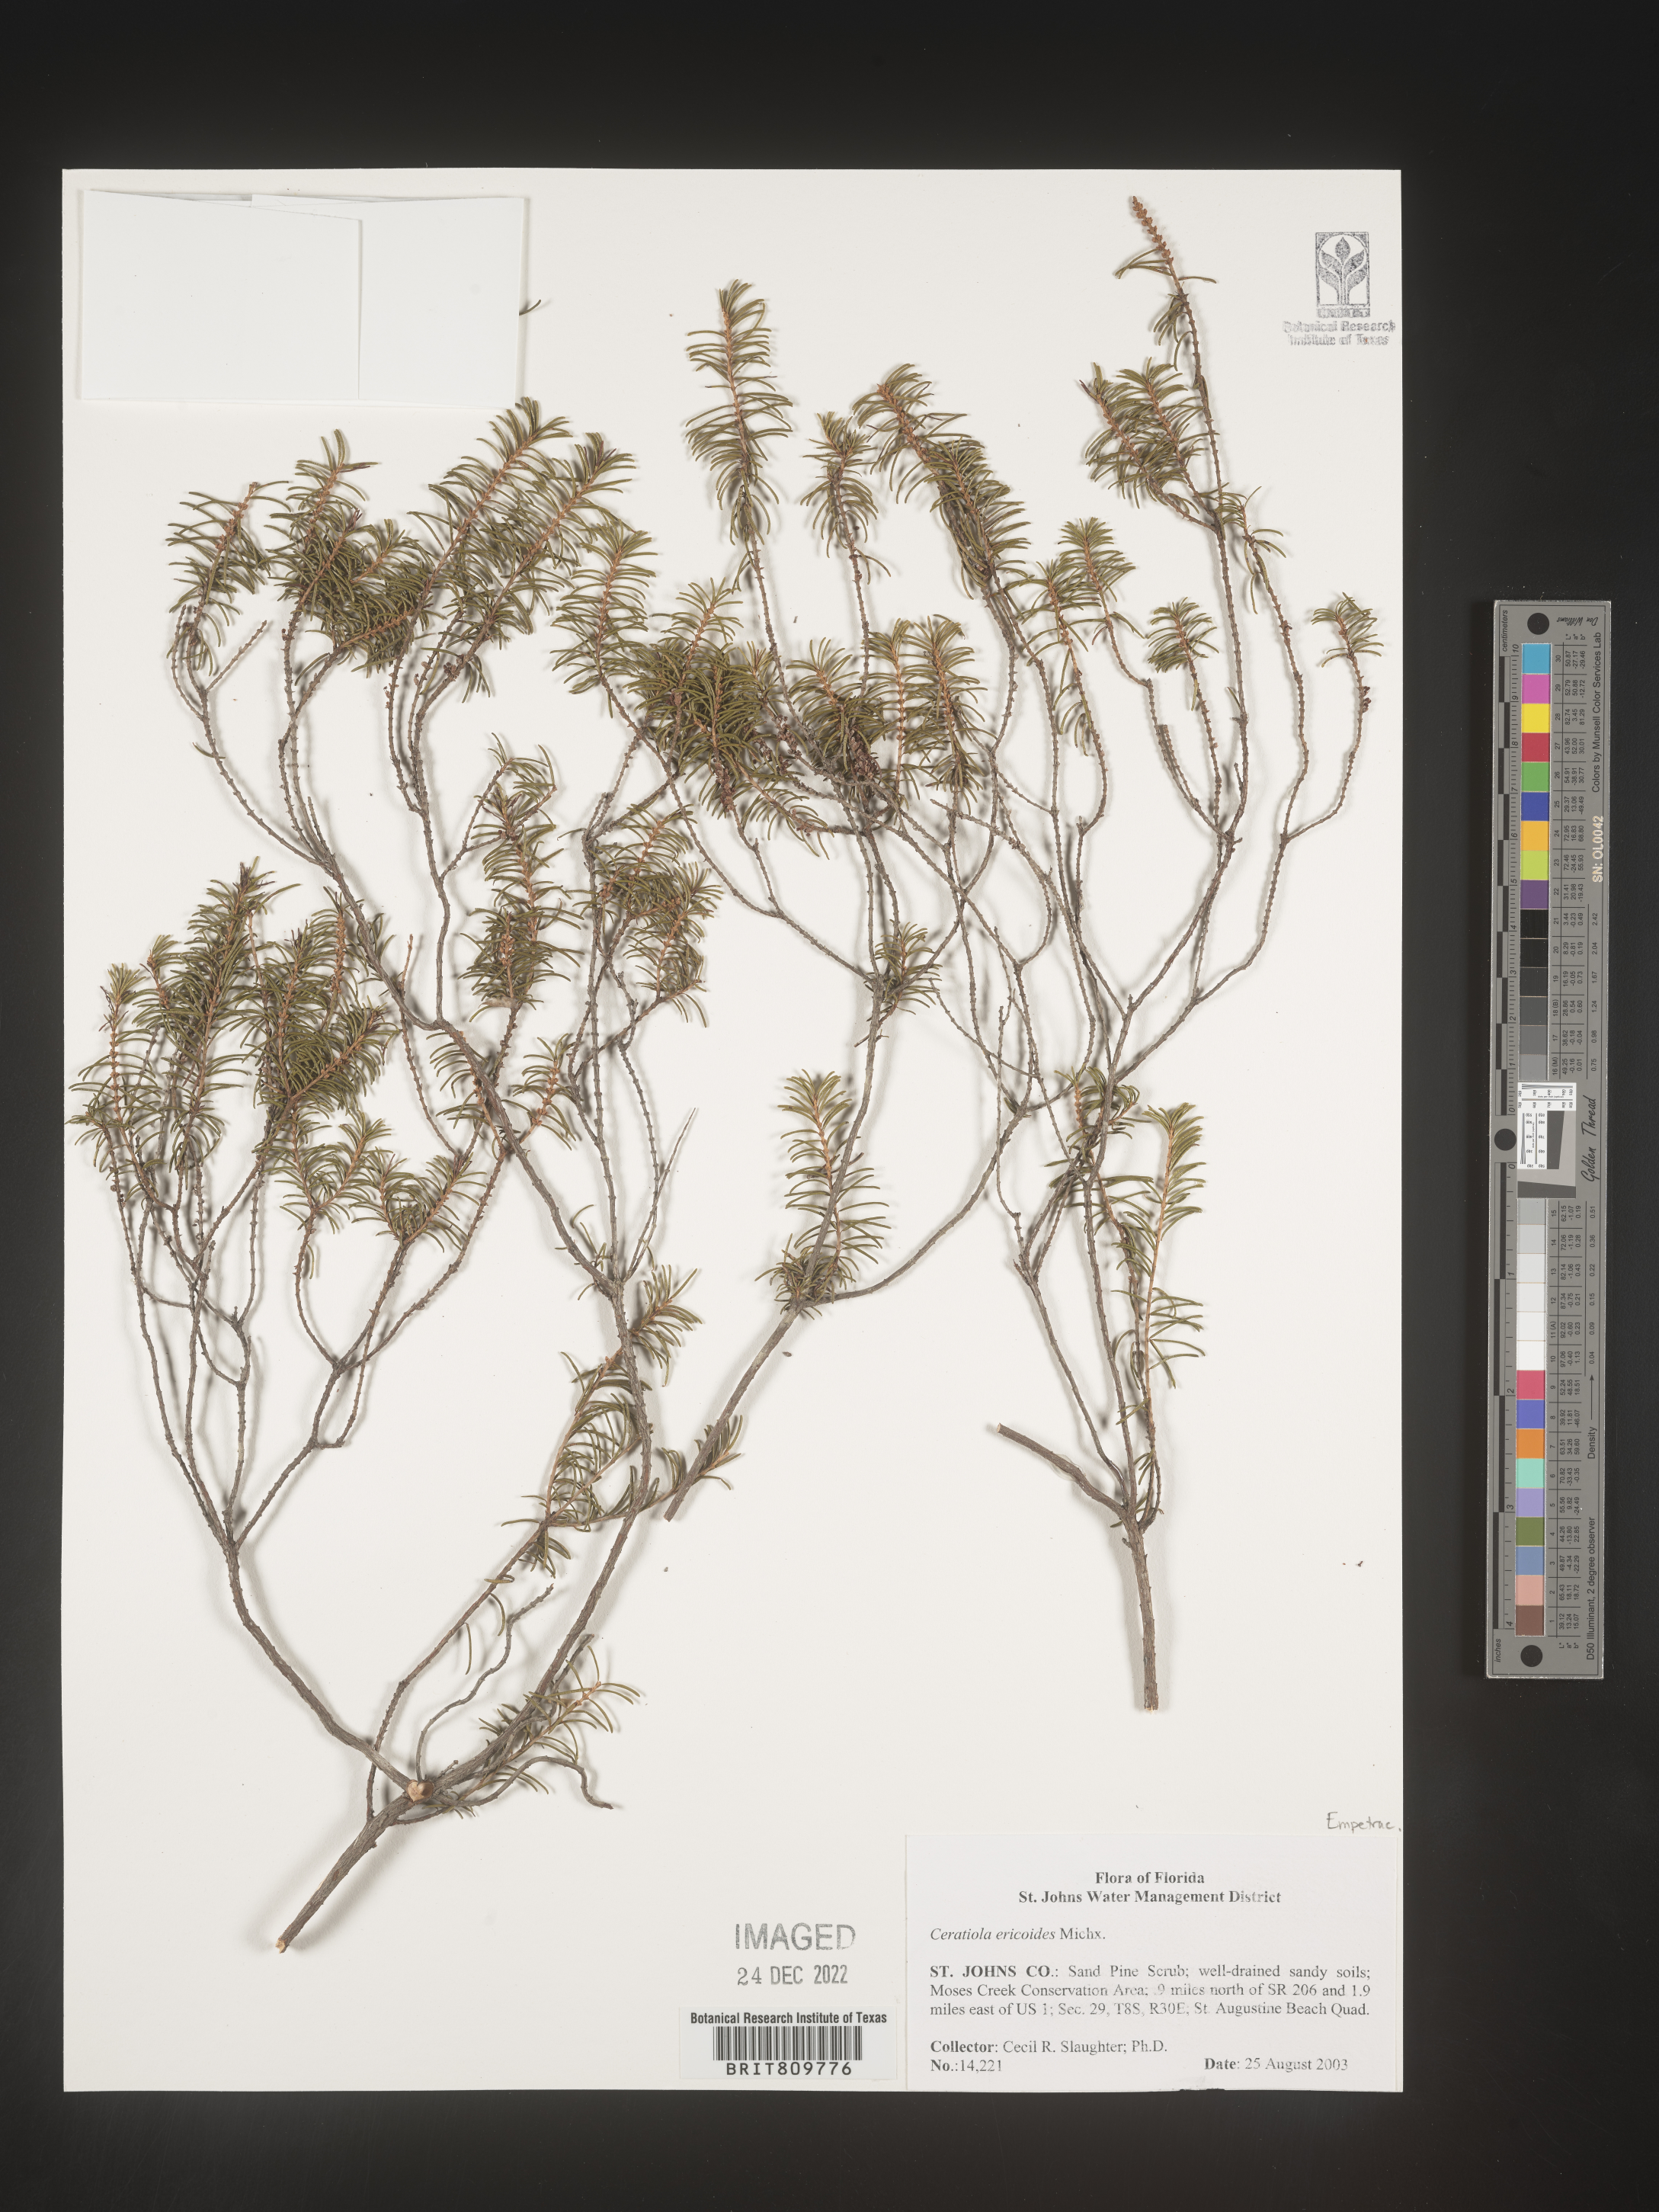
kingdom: Plantae
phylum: Tracheophyta
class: Magnoliopsida
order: Ericales
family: Ericaceae
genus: Ceratiola
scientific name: Ceratiola ericoides
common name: Sandhill-rosemary
